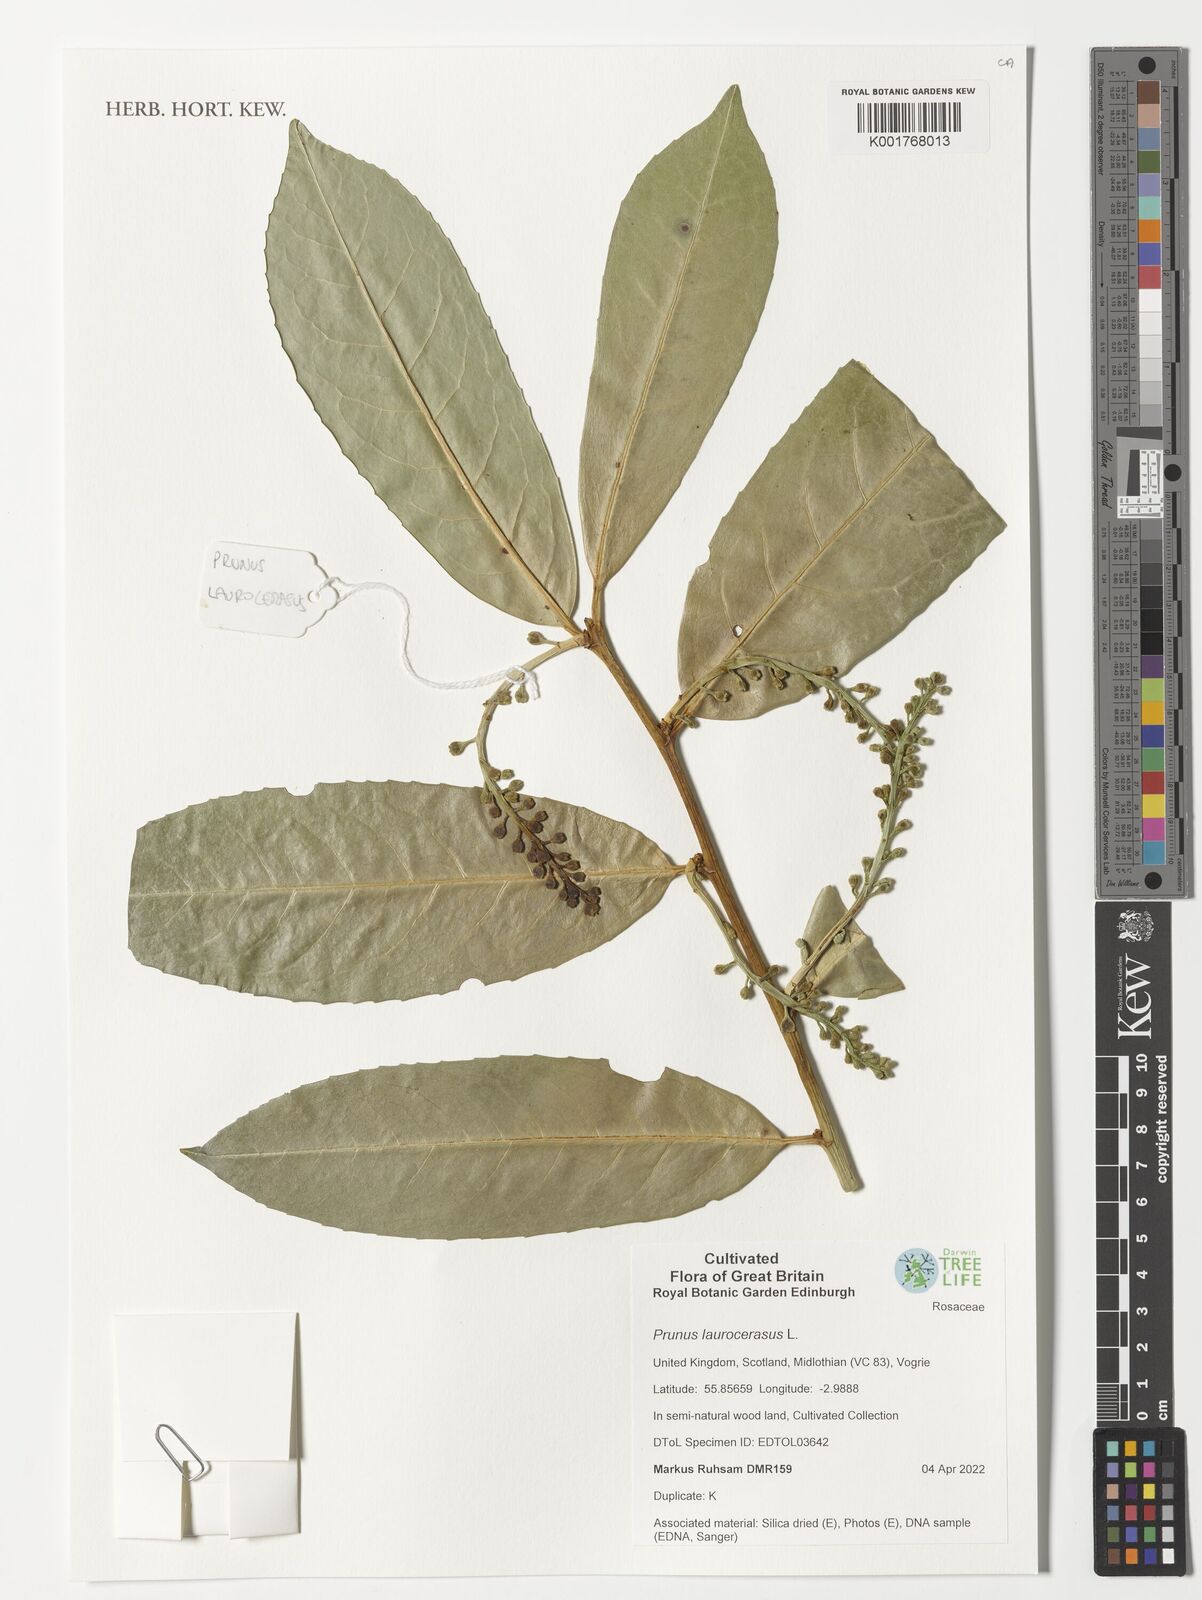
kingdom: Plantae
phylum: Tracheophyta
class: Magnoliopsida
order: Rosales
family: Rosaceae
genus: Prunus
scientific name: Prunus laurocerasus
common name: Cherry laurel
